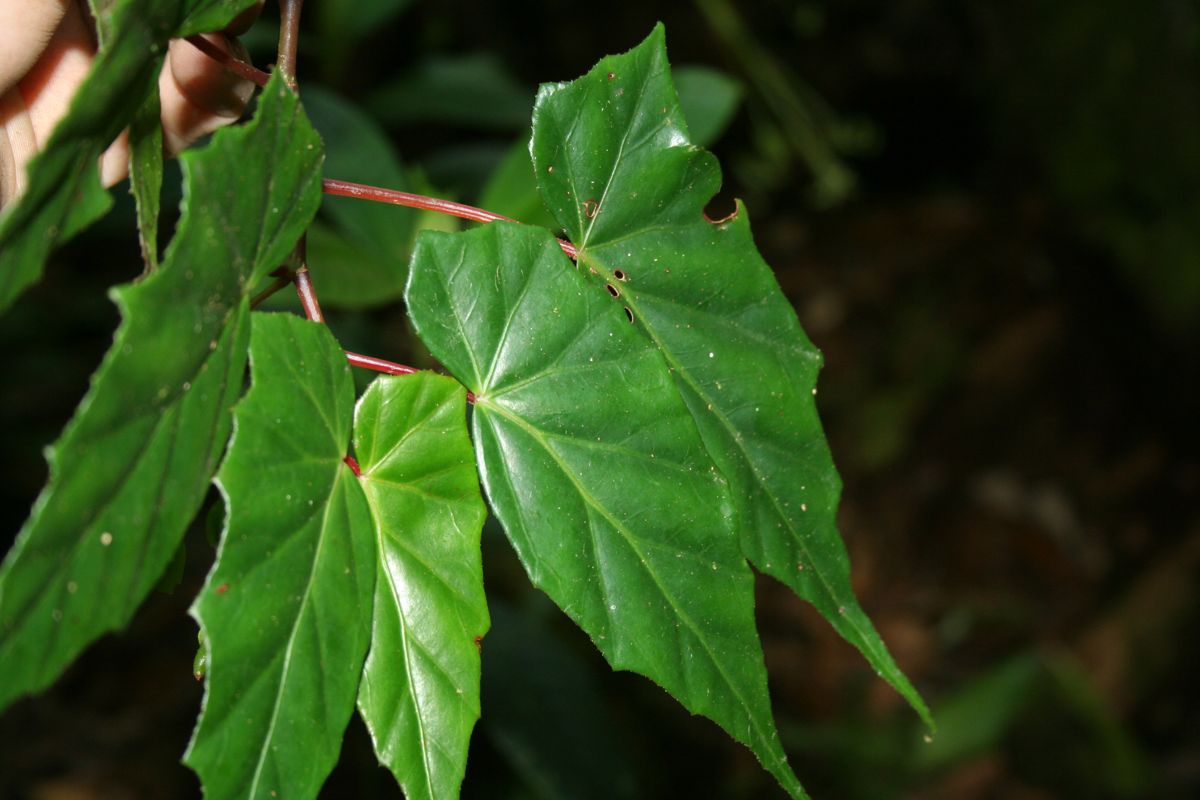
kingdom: Plantae
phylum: Tracheophyta
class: Magnoliopsida
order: Cucurbitales
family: Begoniaceae
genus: Begonia
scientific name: Begonia yunckeri
